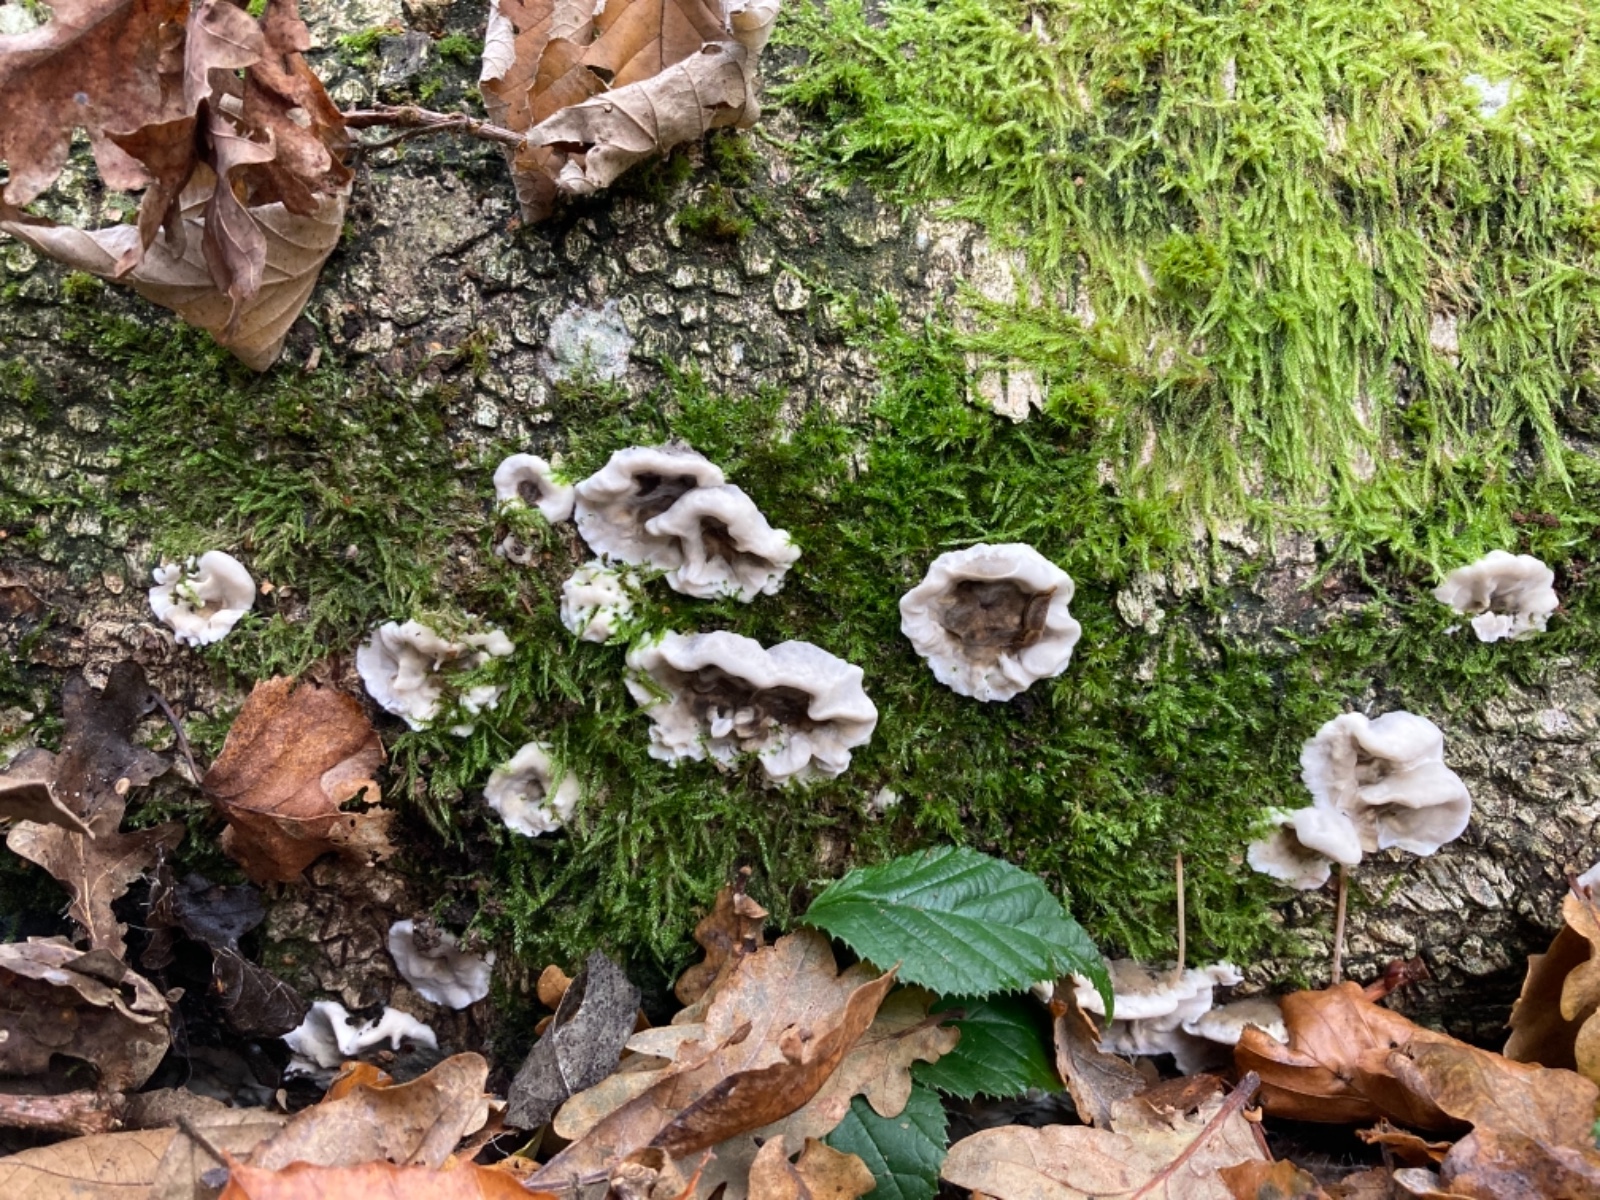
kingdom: Fungi
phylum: Basidiomycota
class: Agaricomycetes
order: Polyporales
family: Phanerochaetaceae
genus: Bjerkandera
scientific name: Bjerkandera adusta
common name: sveden sodporesvamp
